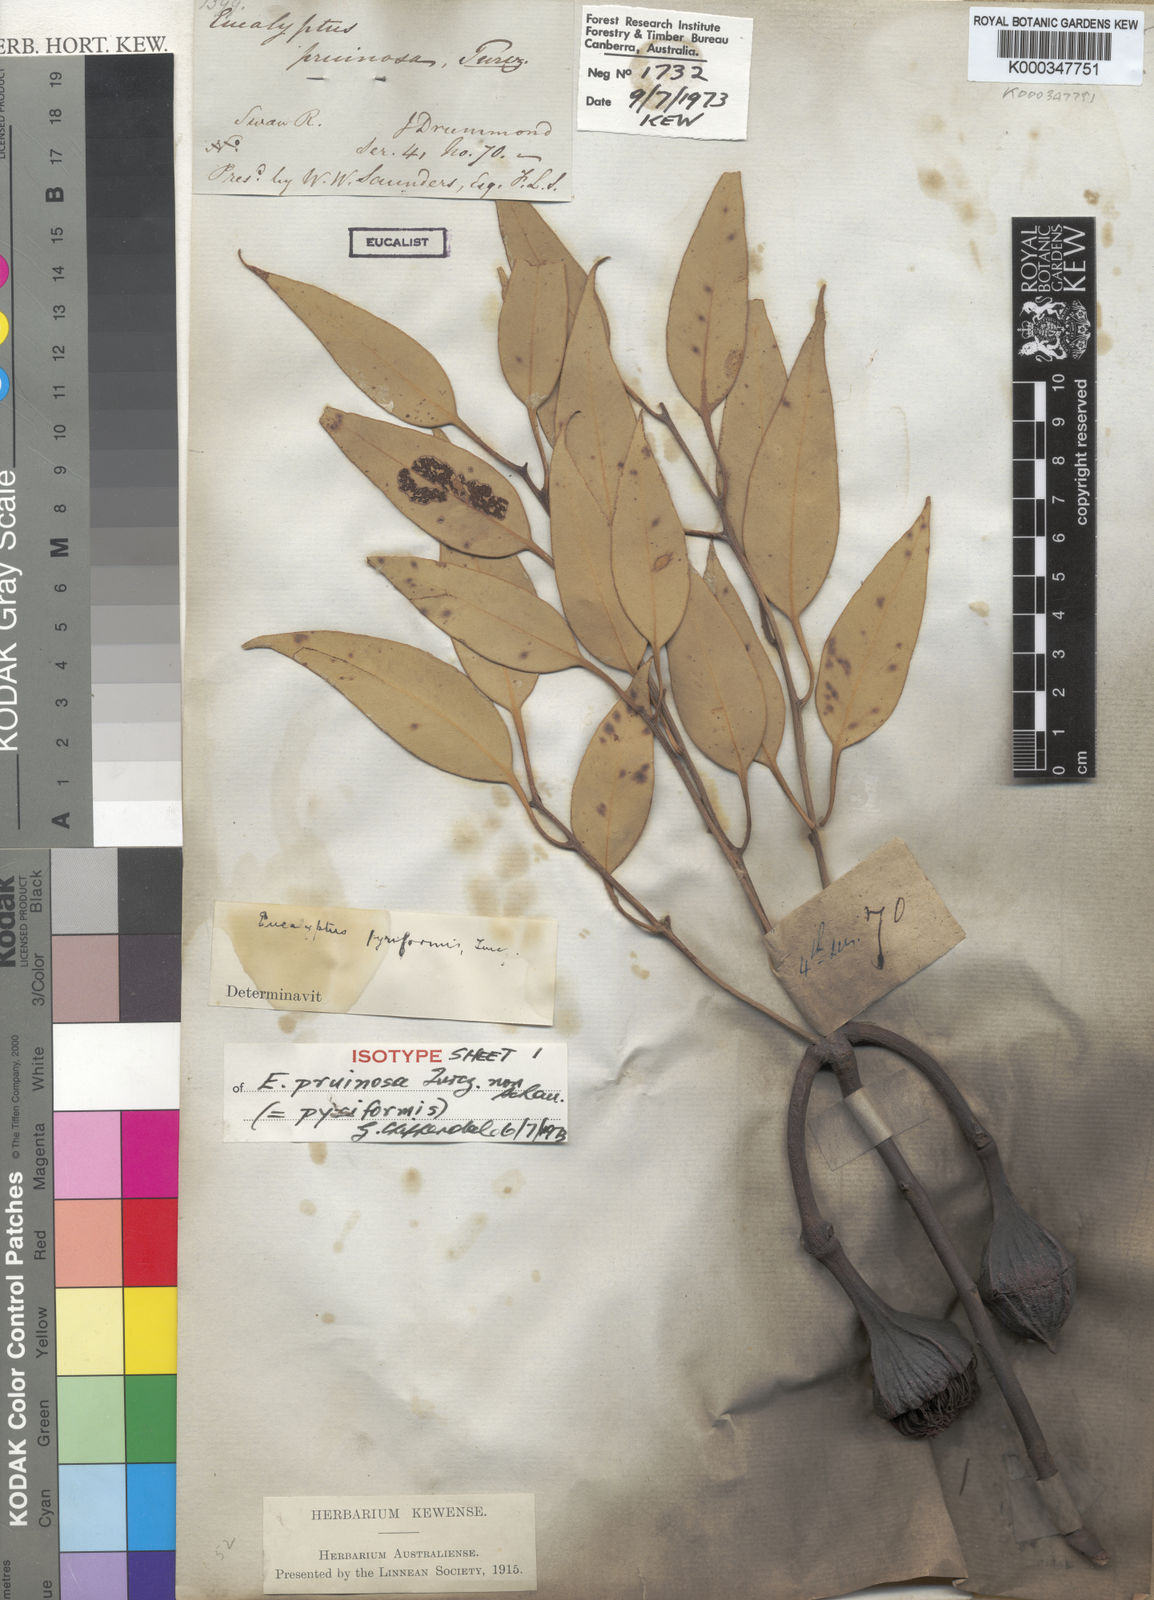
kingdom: Plantae
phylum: Tracheophyta
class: Magnoliopsida
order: Myrtales
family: Myrtaceae
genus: Eucalyptus
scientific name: Eucalyptus pyriformis
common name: Dowerin rose
